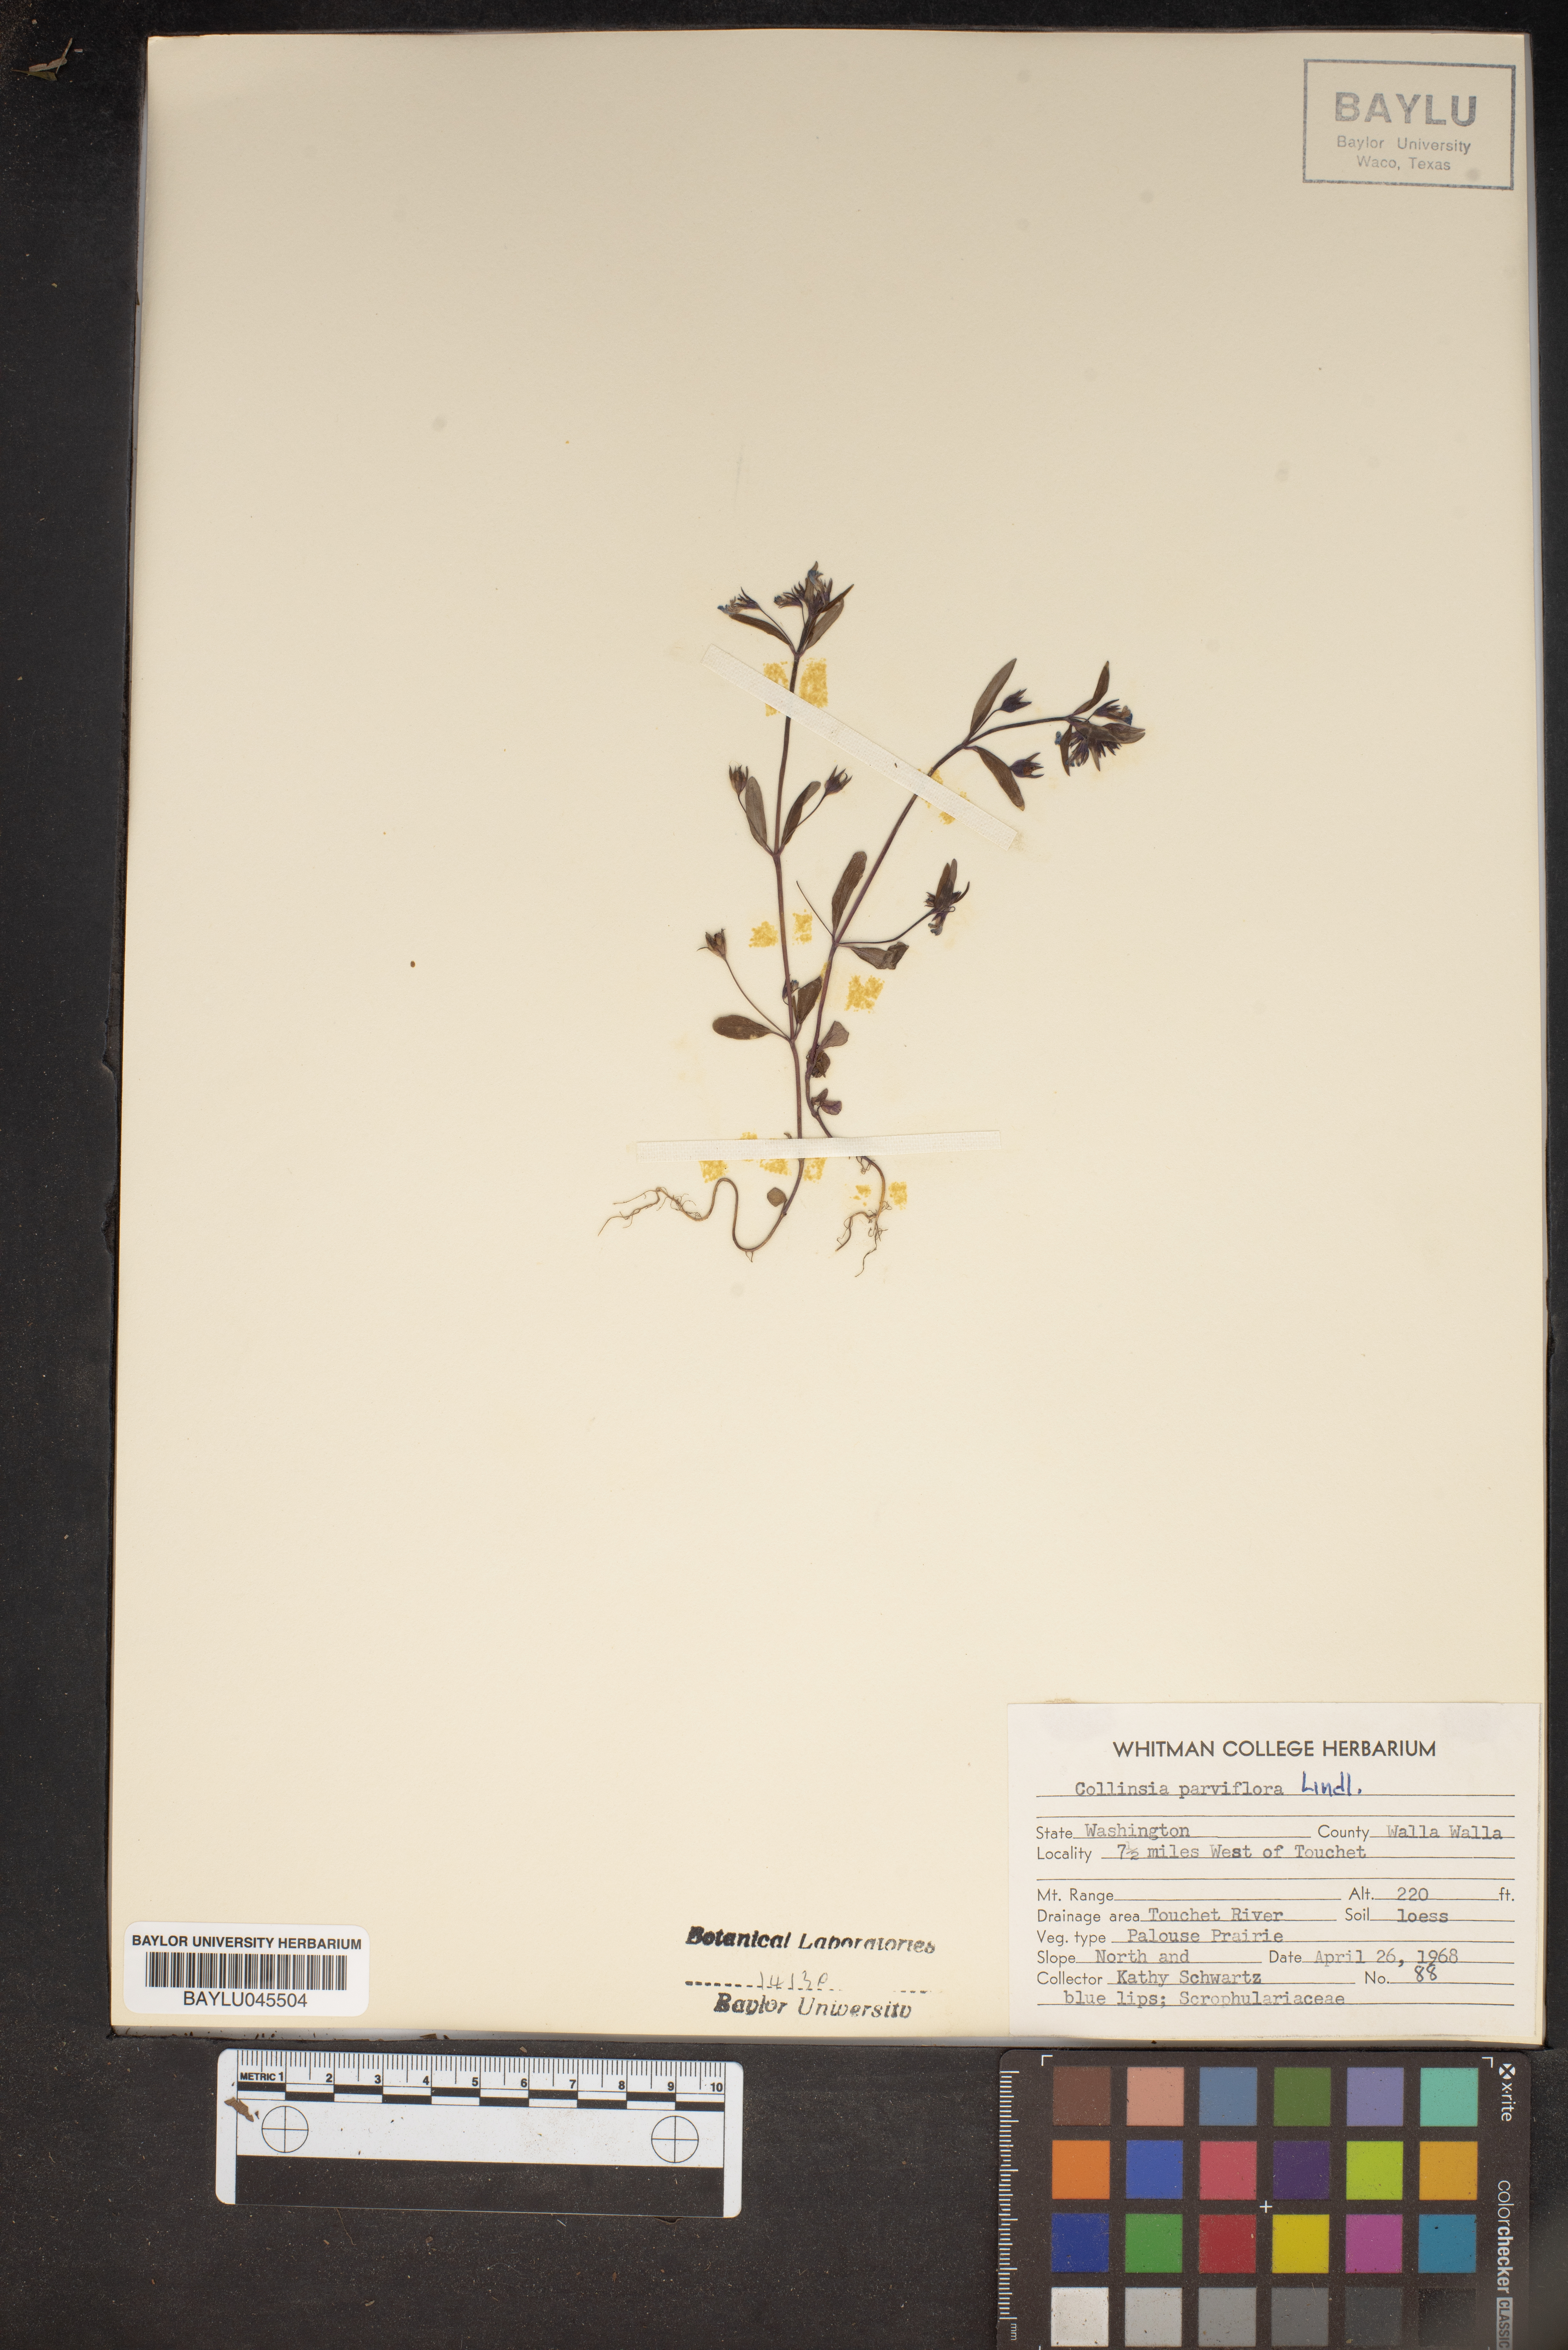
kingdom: Plantae
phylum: Tracheophyta
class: Magnoliopsida
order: Lamiales
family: Plantaginaceae
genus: Collinsia
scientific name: Collinsia parviflora
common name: Blue-lips
